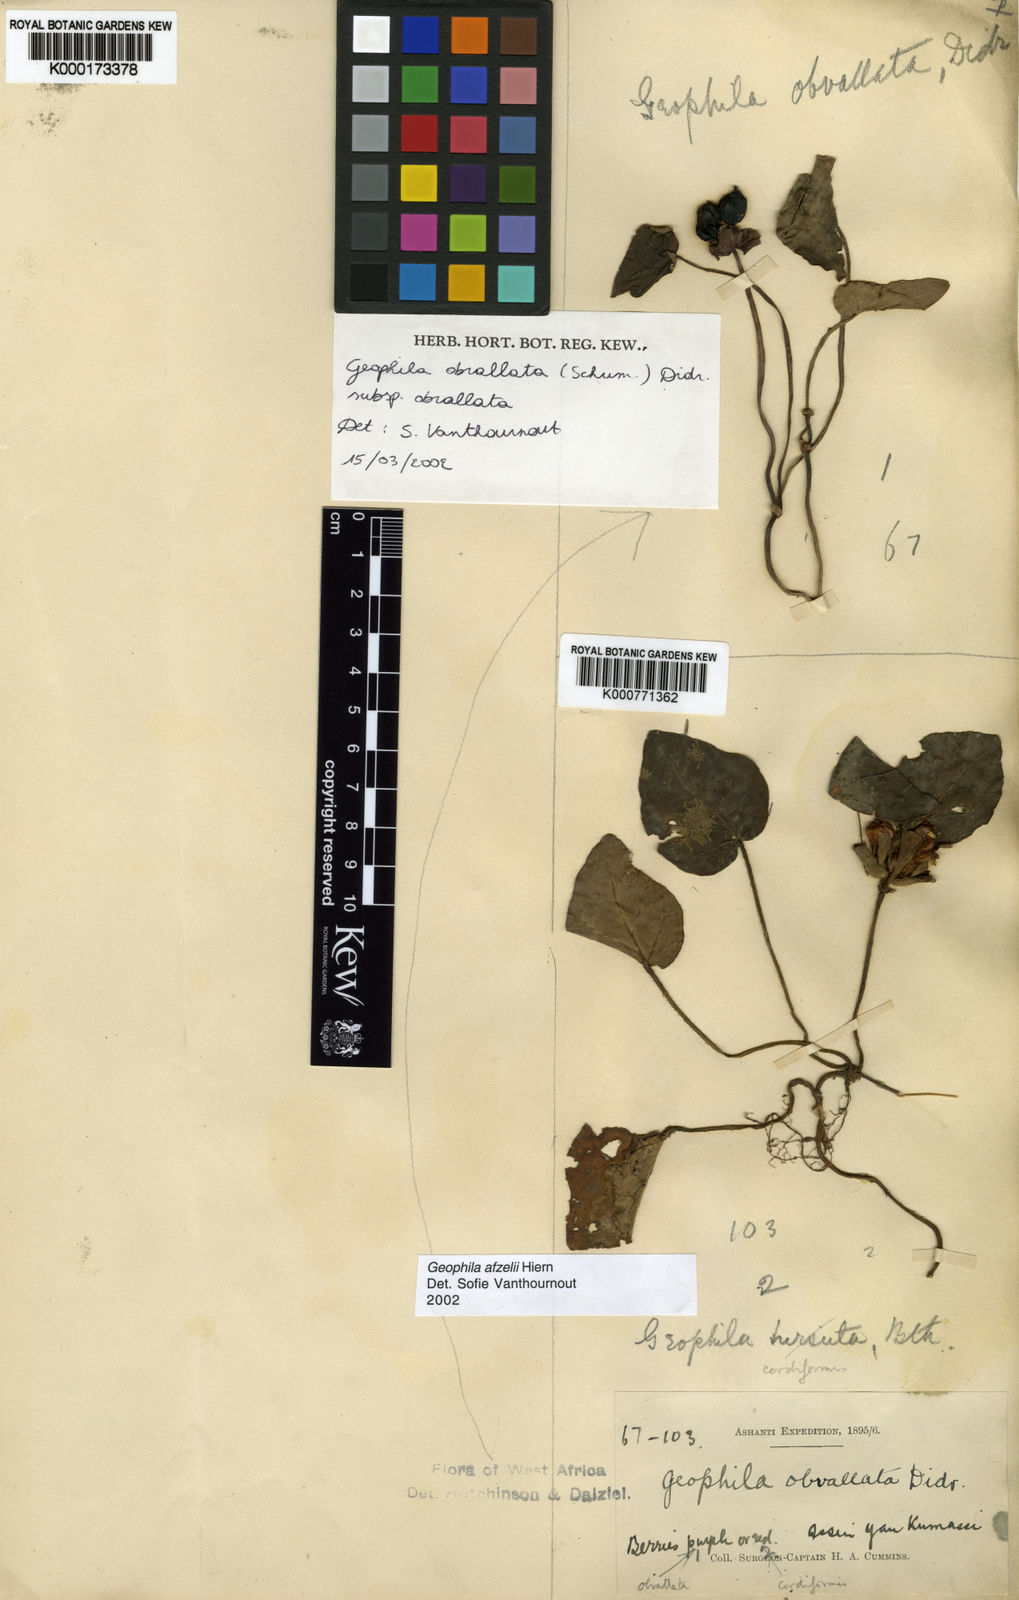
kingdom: Plantae
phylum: Tracheophyta
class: Magnoliopsida
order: Gentianales
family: Rubiaceae
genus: Geophila
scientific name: Geophila obvallata
